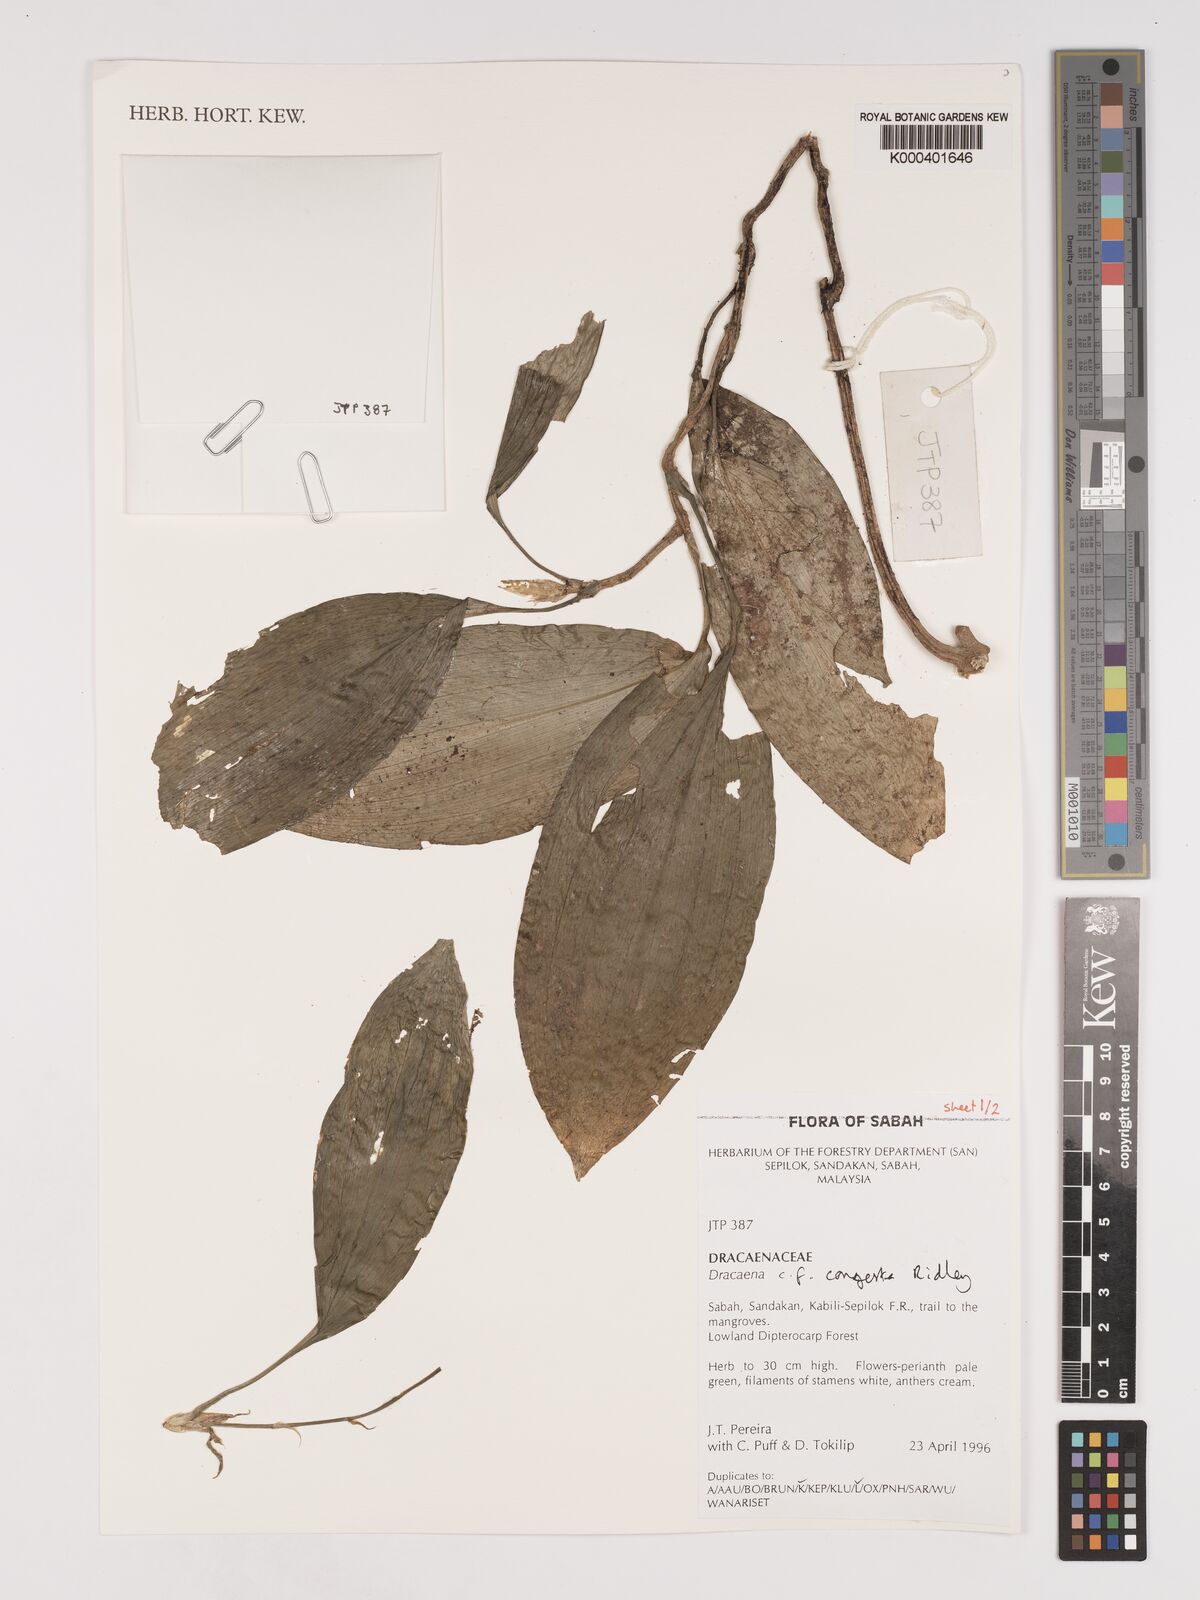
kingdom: Plantae
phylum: Tracheophyta
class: Liliopsida
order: Asparagales
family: Asparagaceae
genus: Dracaena
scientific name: Dracaena chiniana
